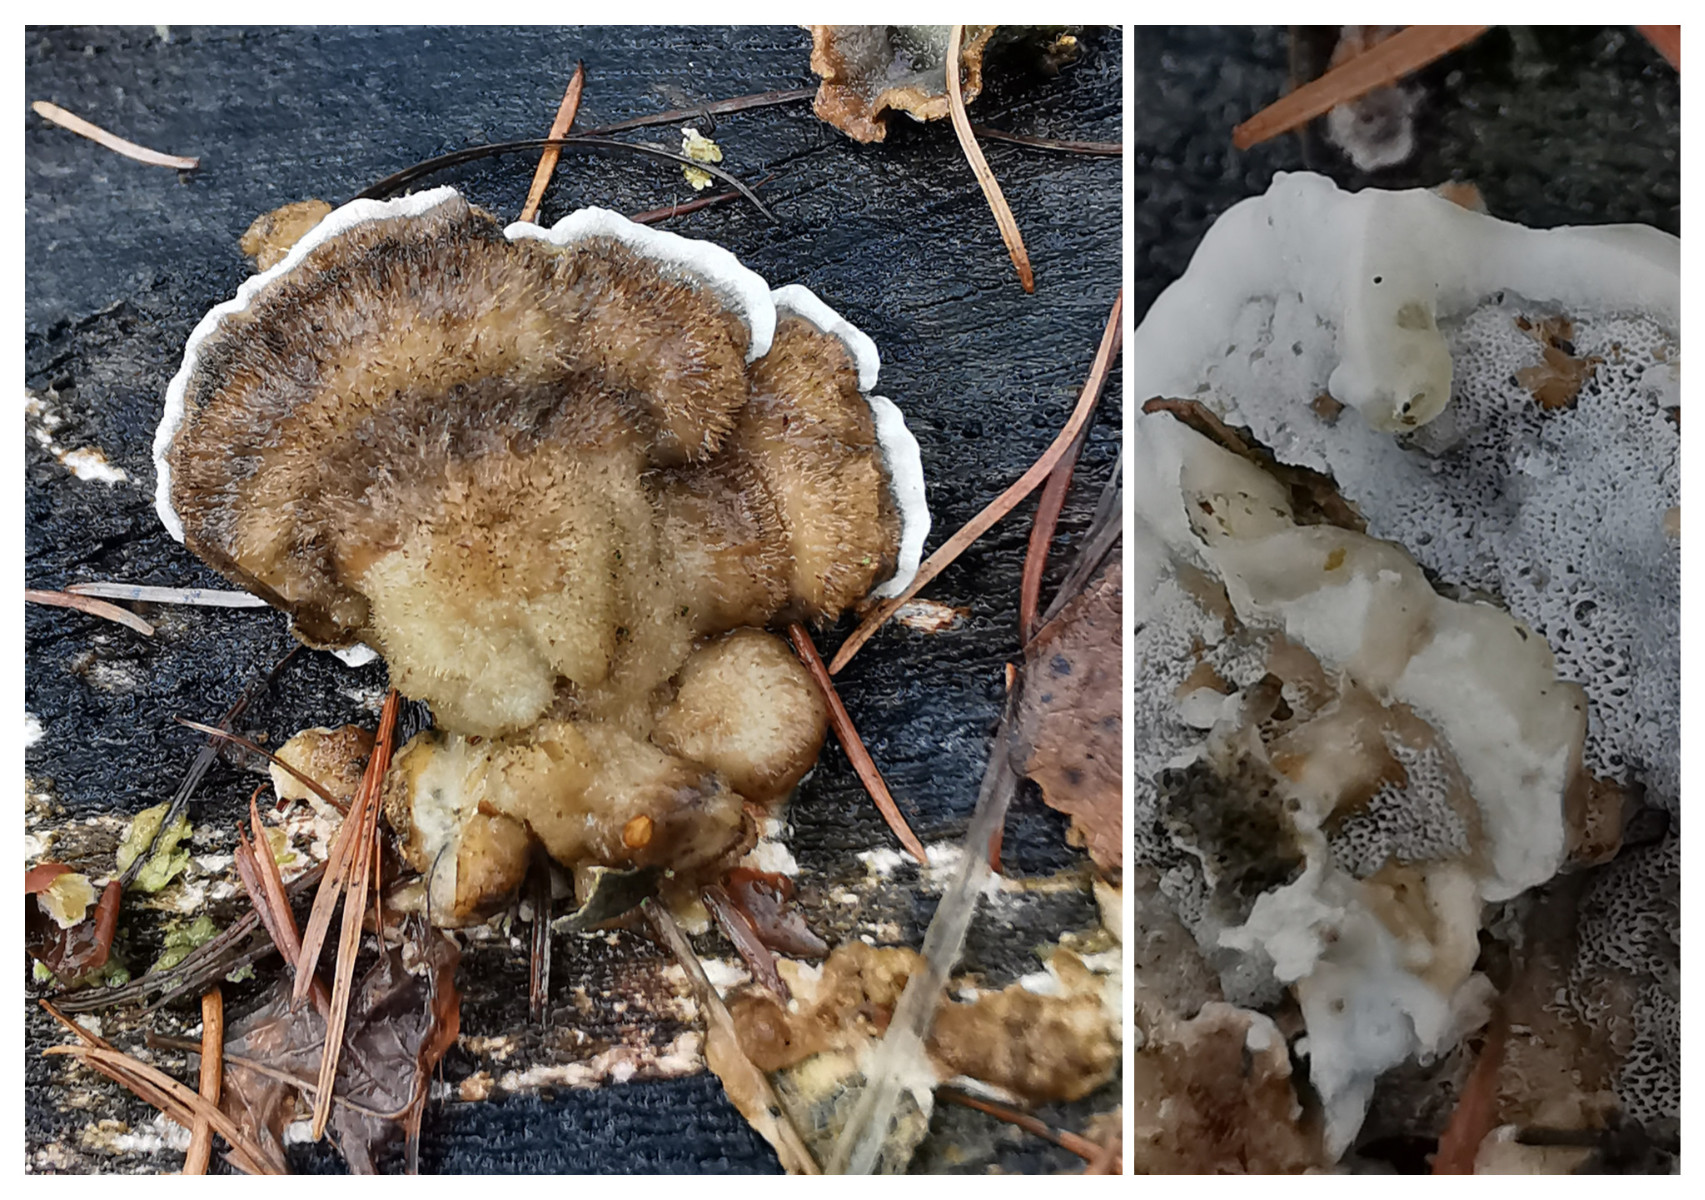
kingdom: Fungi
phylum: Basidiomycota
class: Agaricomycetes
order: Polyporales
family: Phanerochaetaceae
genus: Bjerkandera
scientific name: Bjerkandera adusta
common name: sveden sodporesvamp
